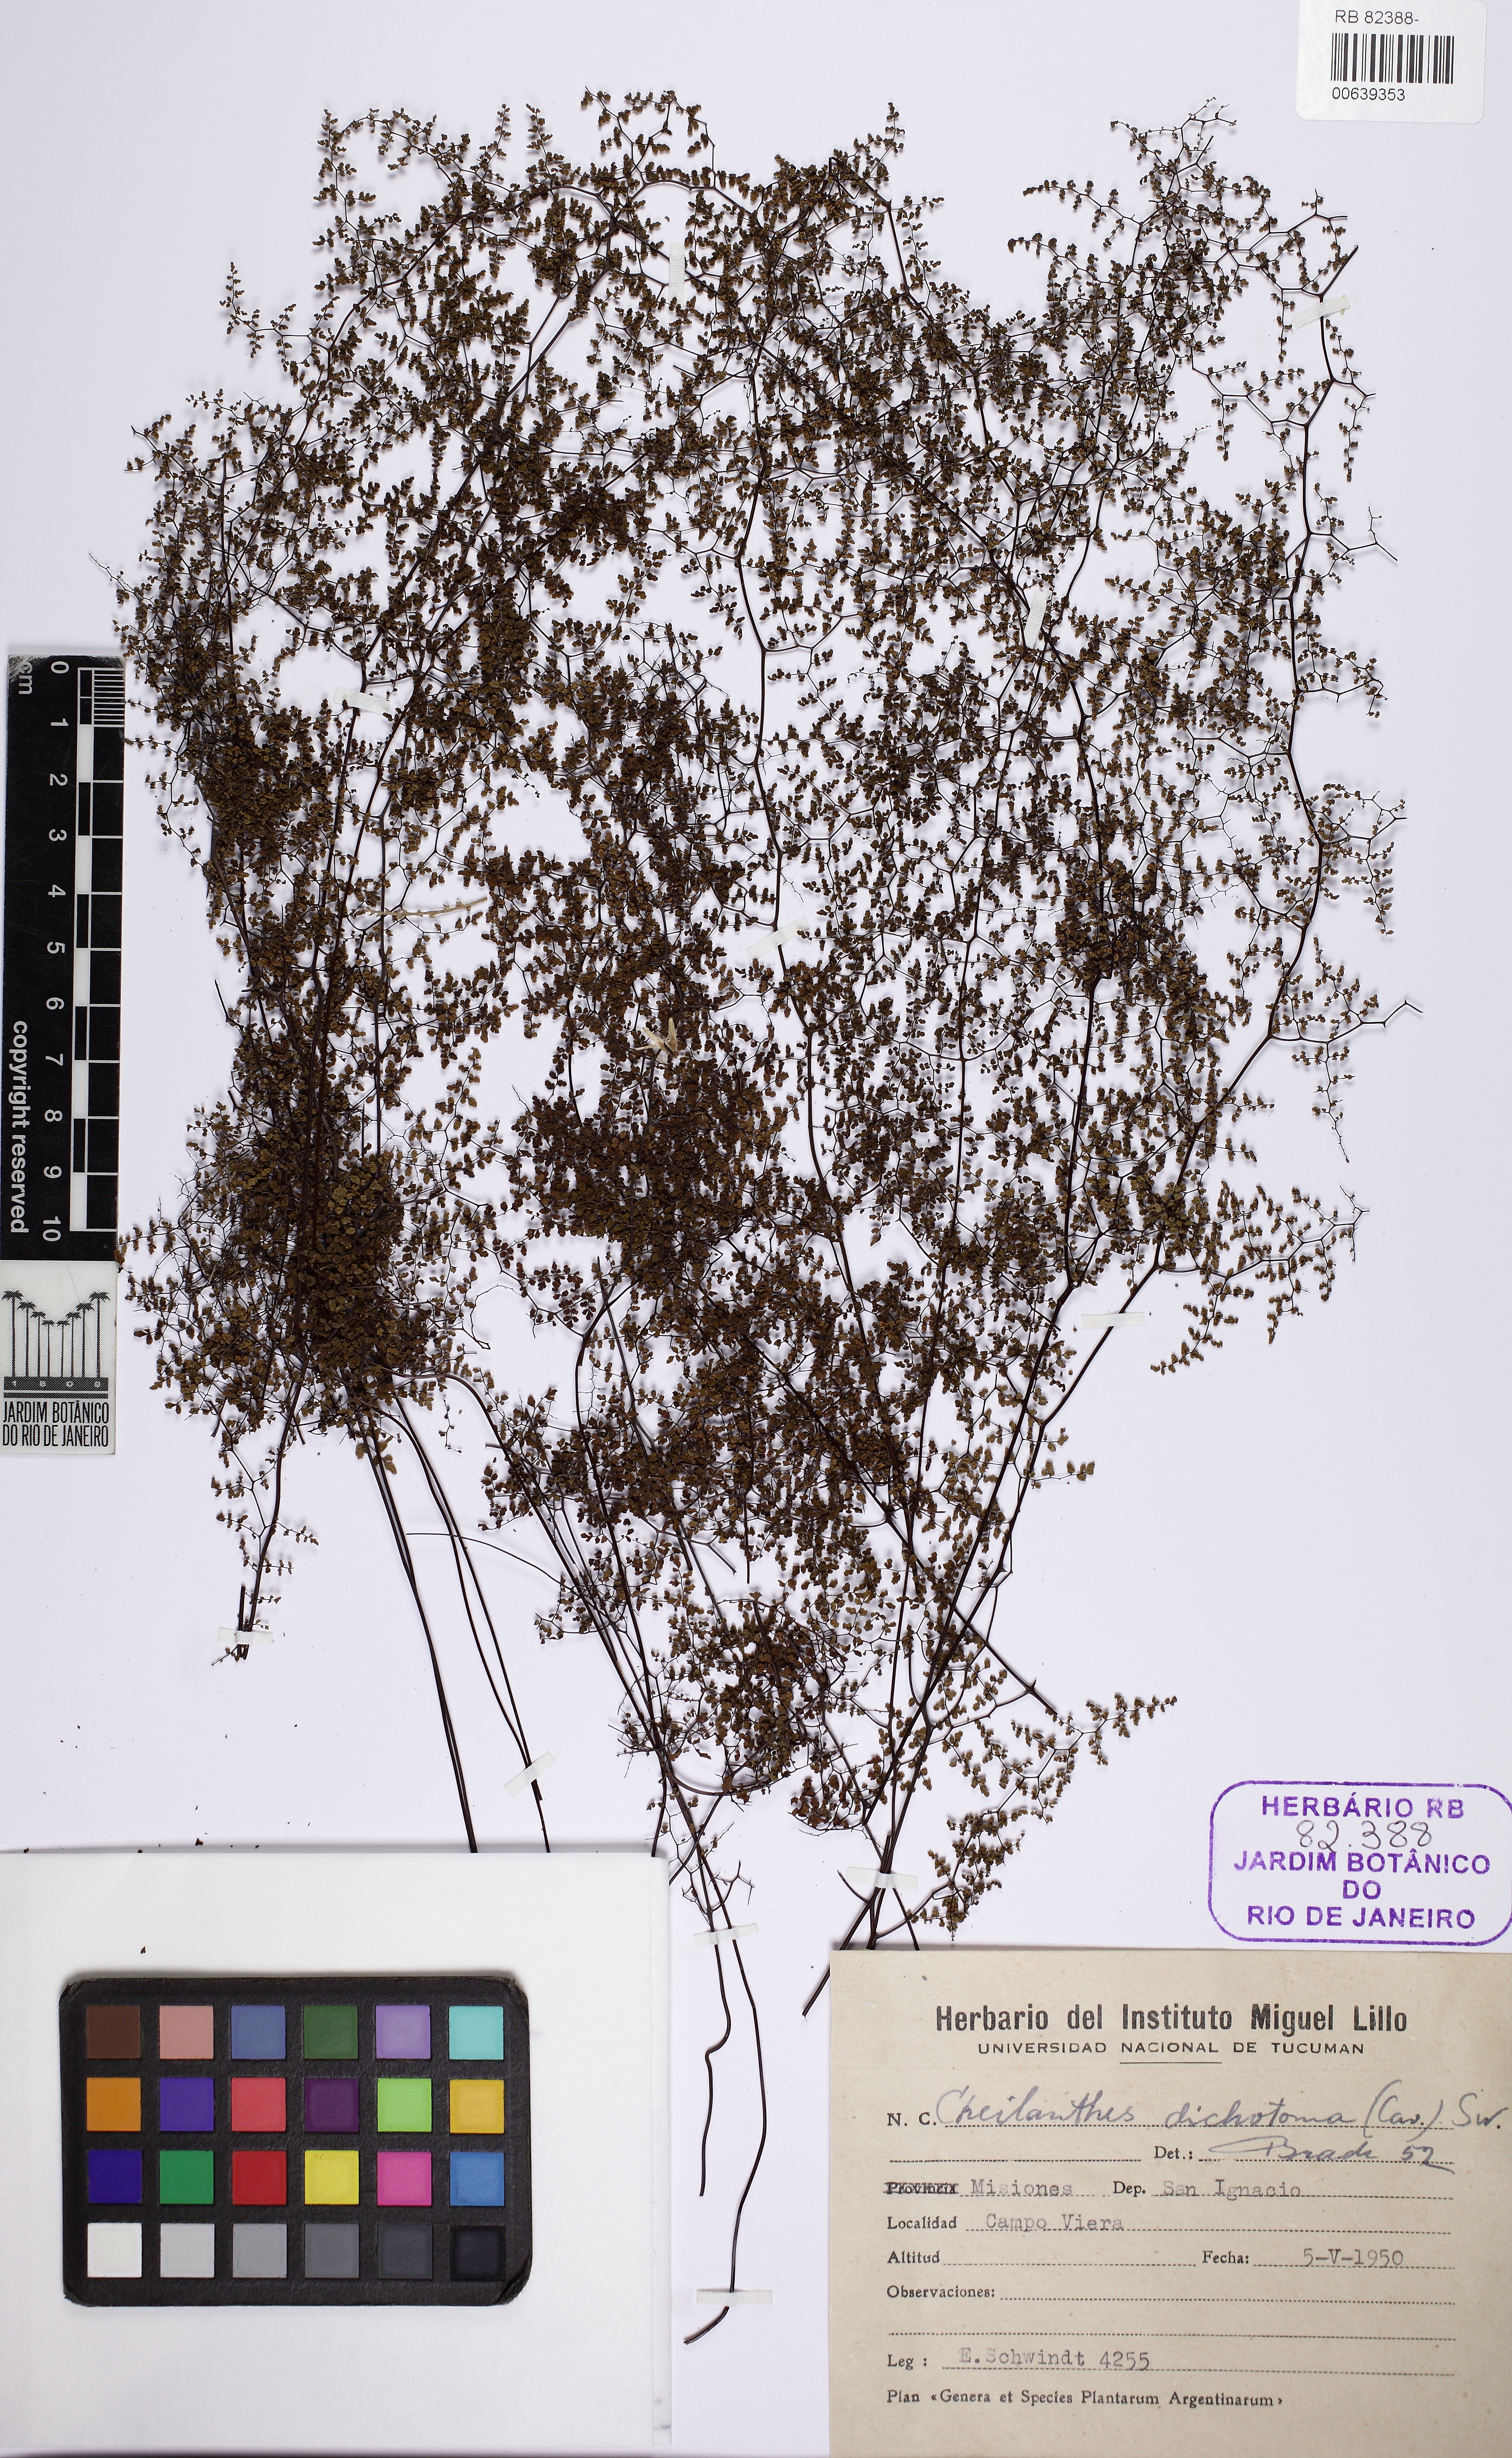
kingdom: Plantae
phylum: Tracheophyta
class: Polypodiopsida
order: Polypodiales
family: Pteridaceae
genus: Adiantopsis
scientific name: Adiantopsis dichotoma
